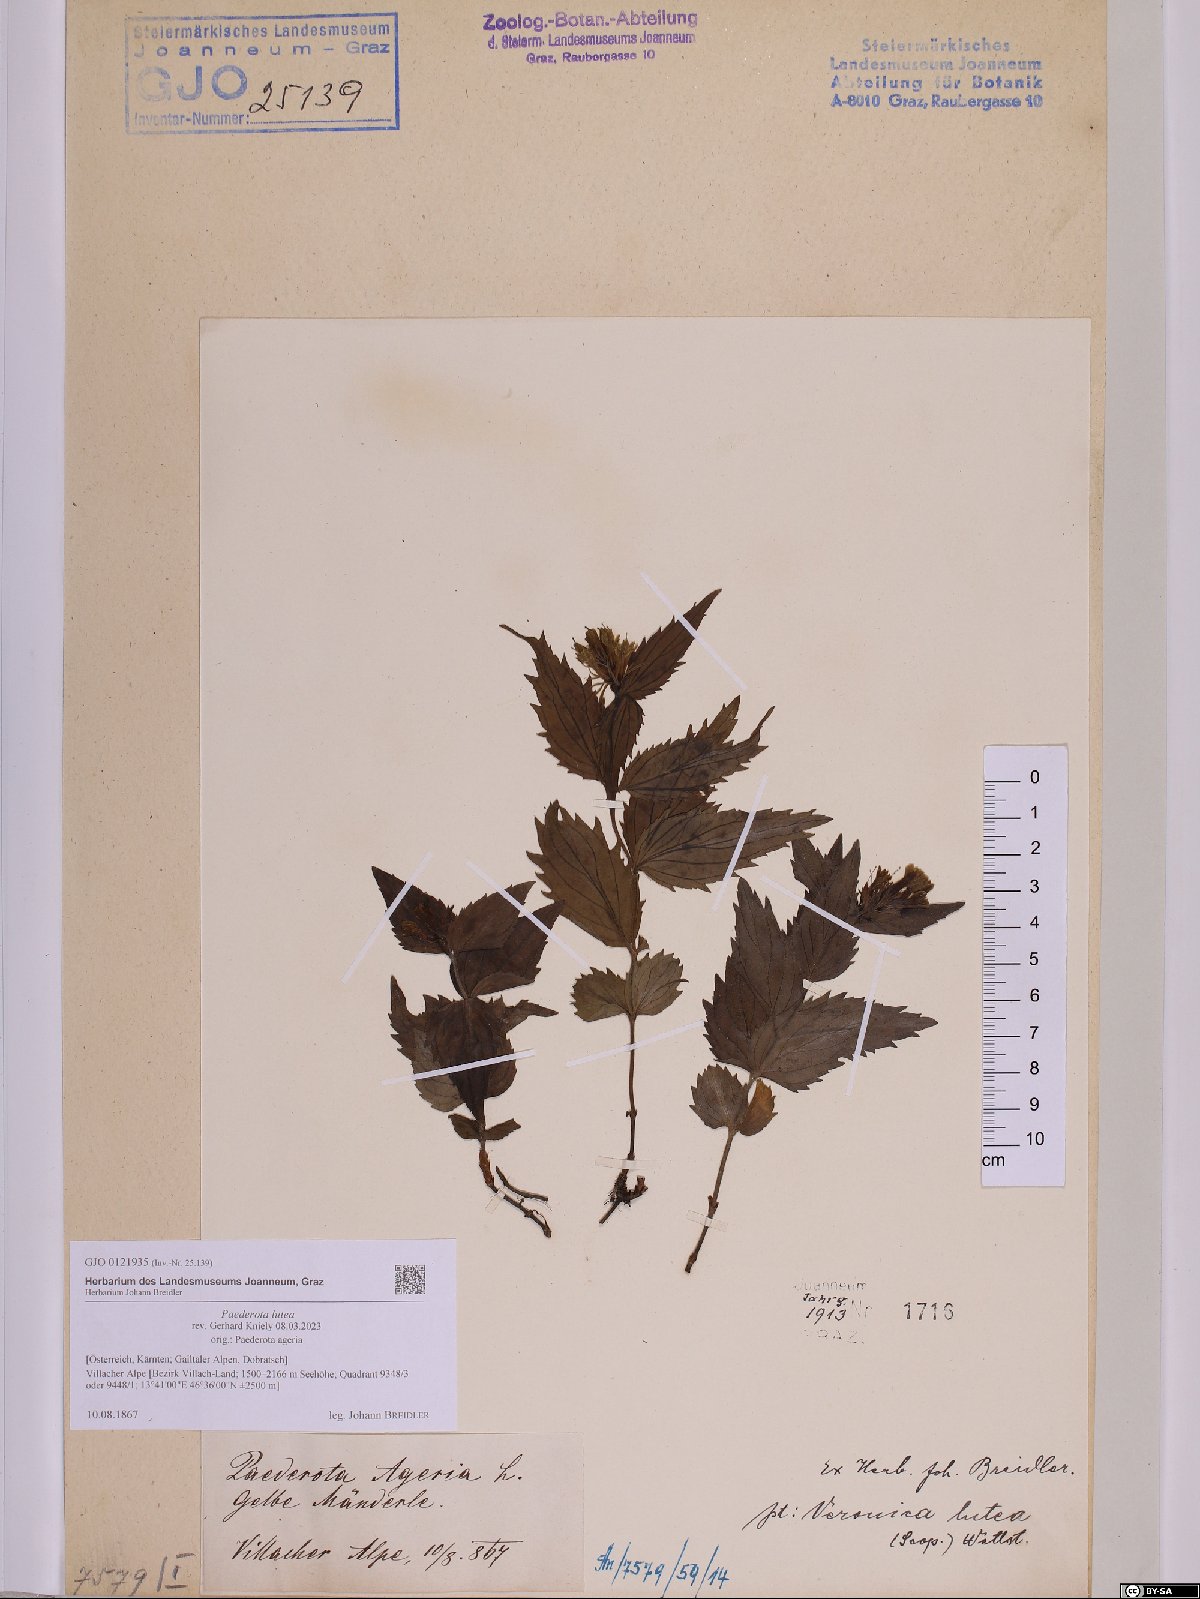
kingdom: Plantae
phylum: Tracheophyta
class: Magnoliopsida
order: Lamiales
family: Plantaginaceae
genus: Paederota
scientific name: Paederota lutea
